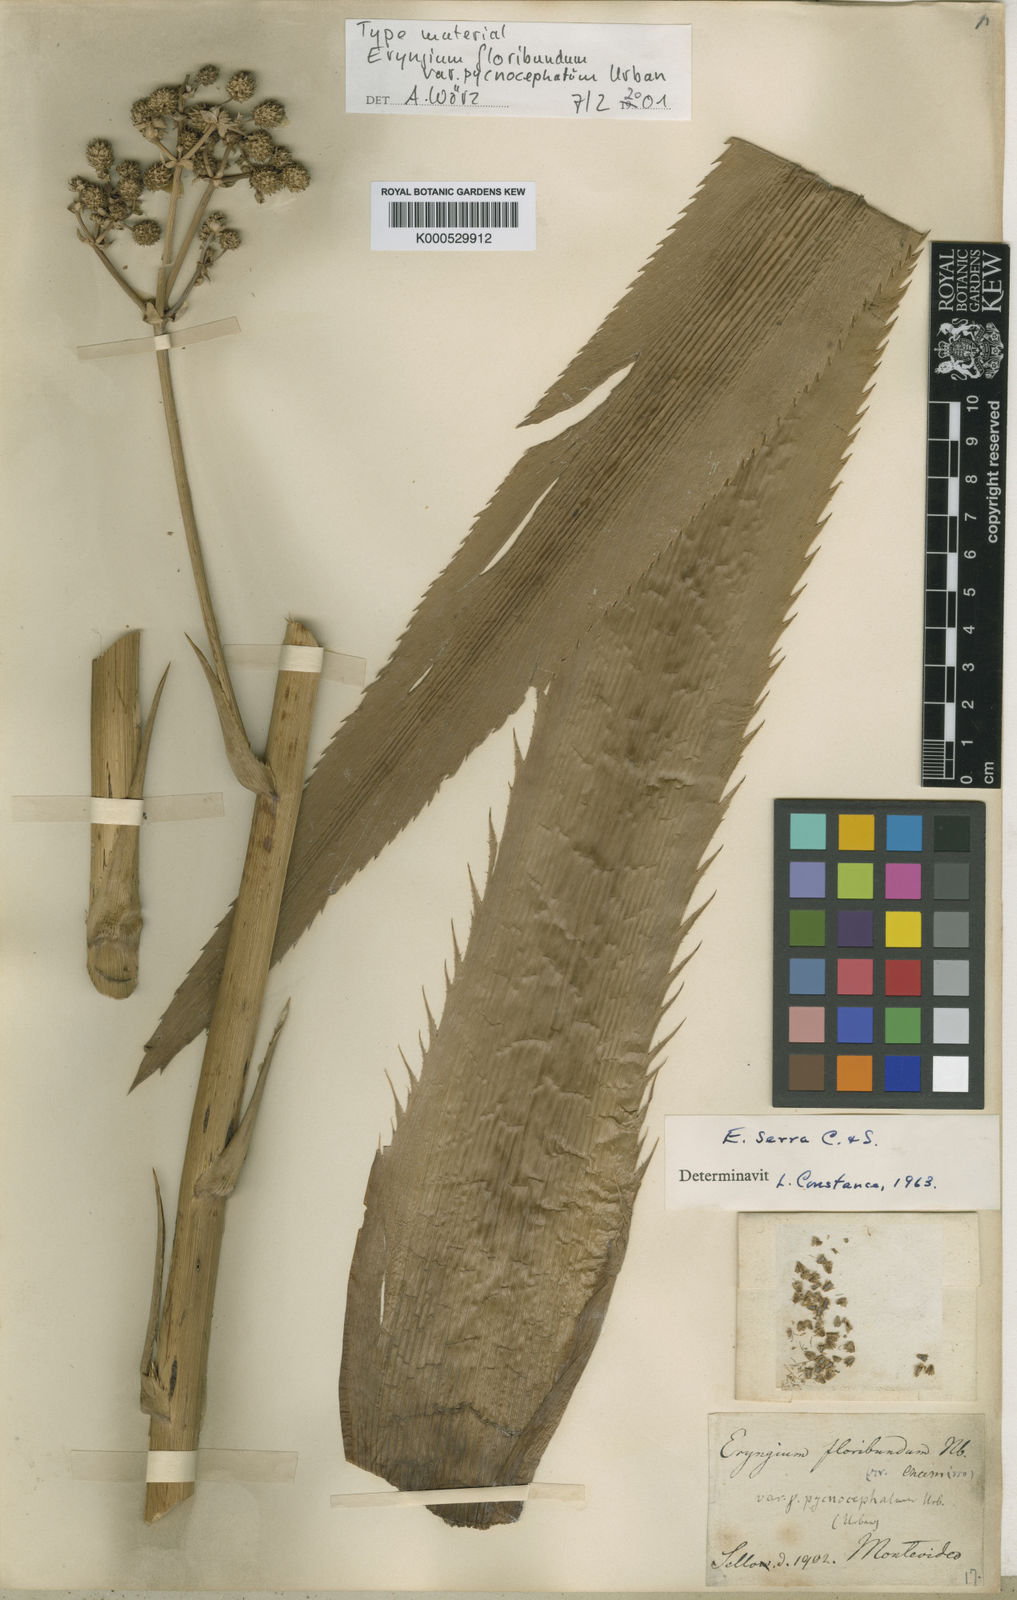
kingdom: Plantae
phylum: Tracheophyta
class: Magnoliopsida
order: Apiales
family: Apiaceae
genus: Eryngium
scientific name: Eryngium floribundum
